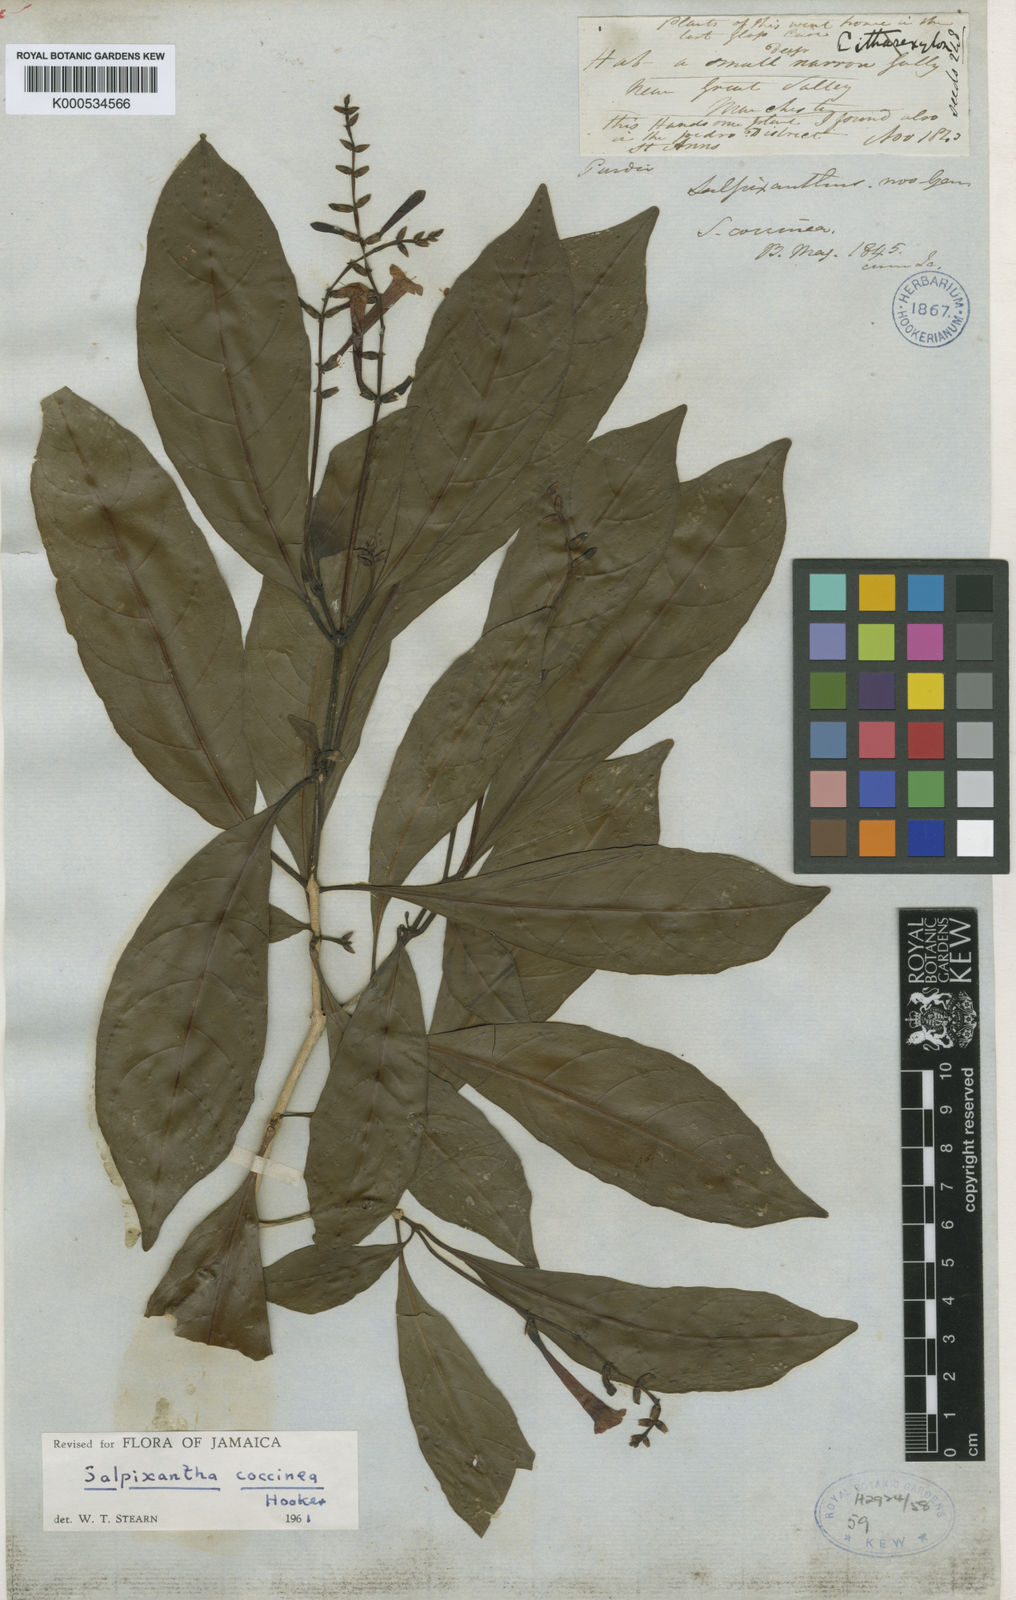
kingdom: Plantae
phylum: Tracheophyta
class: Magnoliopsida
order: Lamiales
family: Acanthaceae
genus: Salpixantha
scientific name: Salpixantha coccinea
